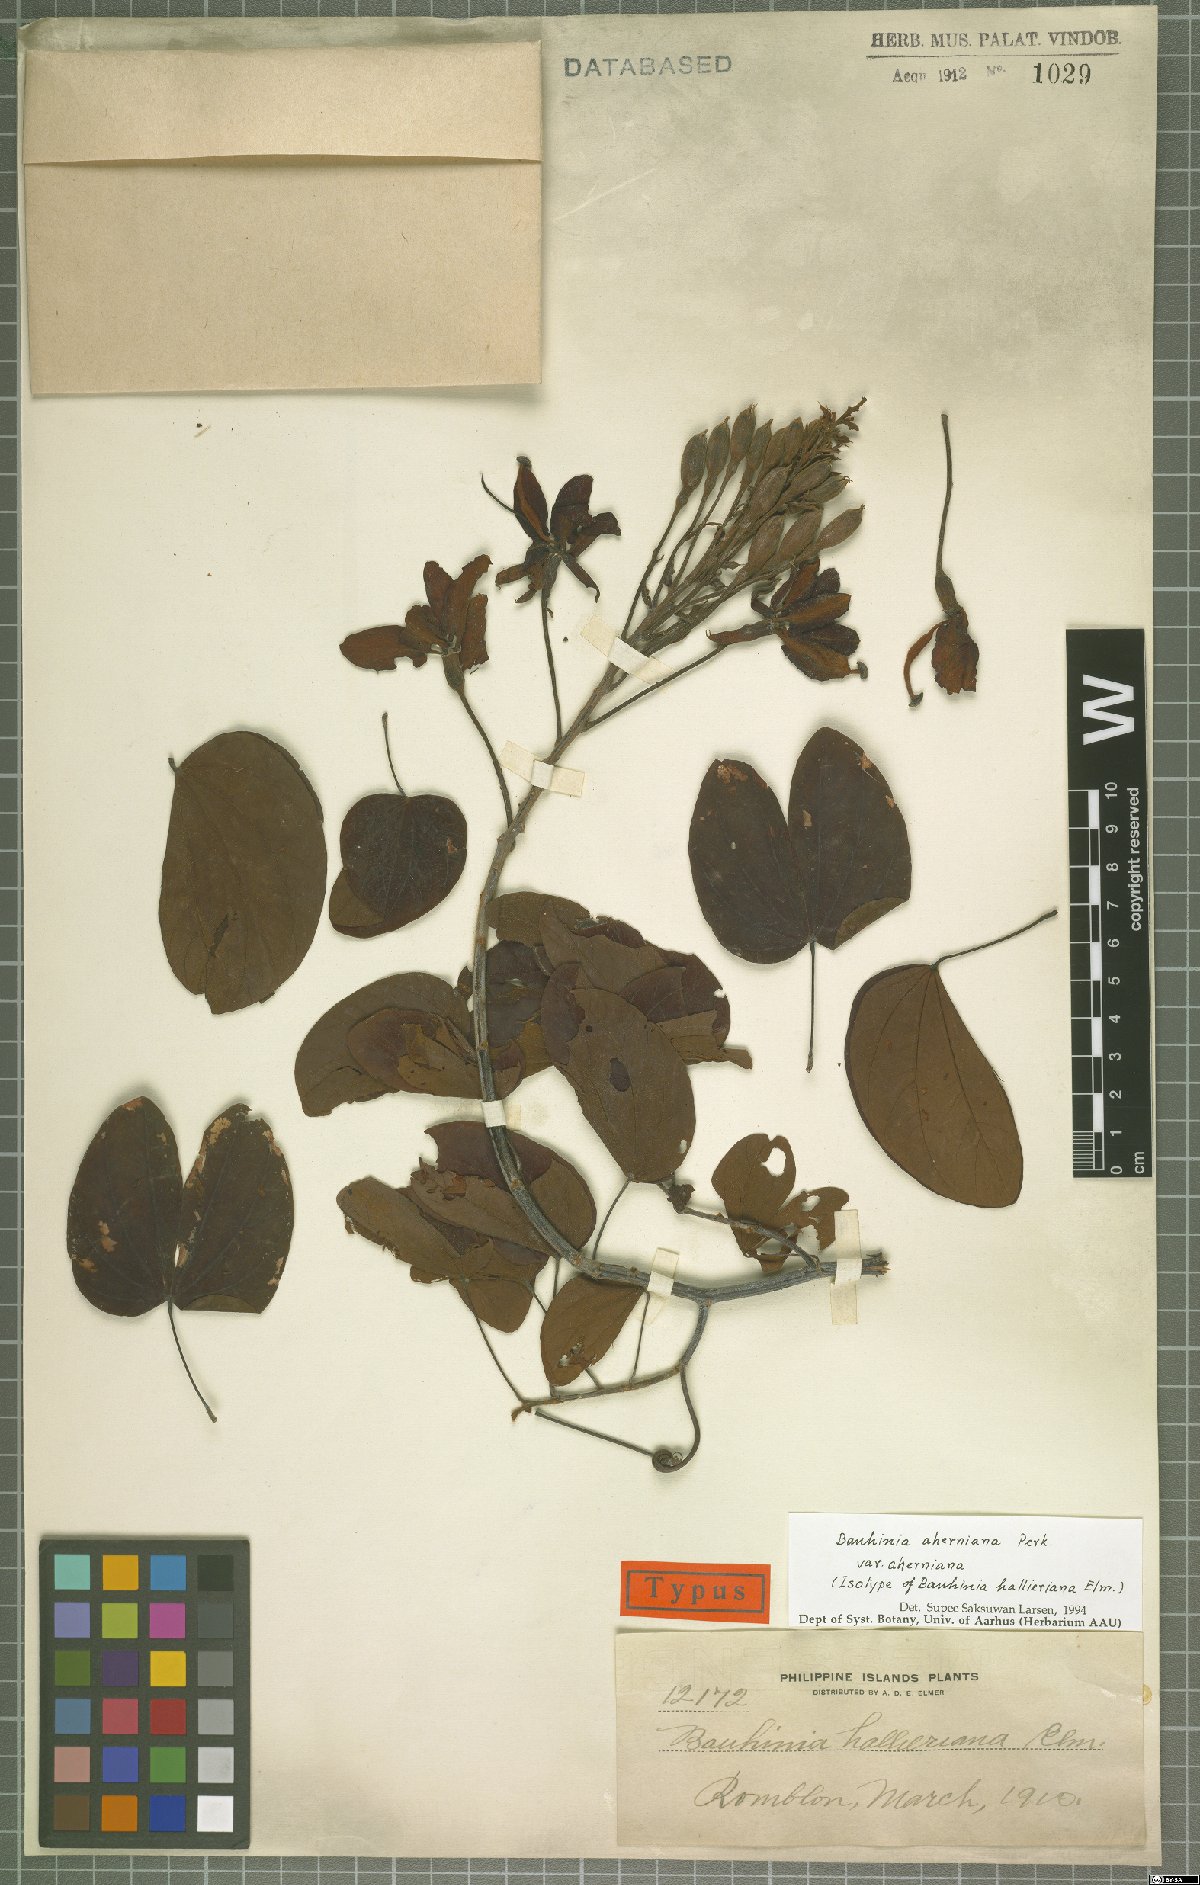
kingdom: Plantae
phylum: Tracheophyta
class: Magnoliopsida
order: Fabales
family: Fabaceae
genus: Phanera
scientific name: Phanera aherniana
